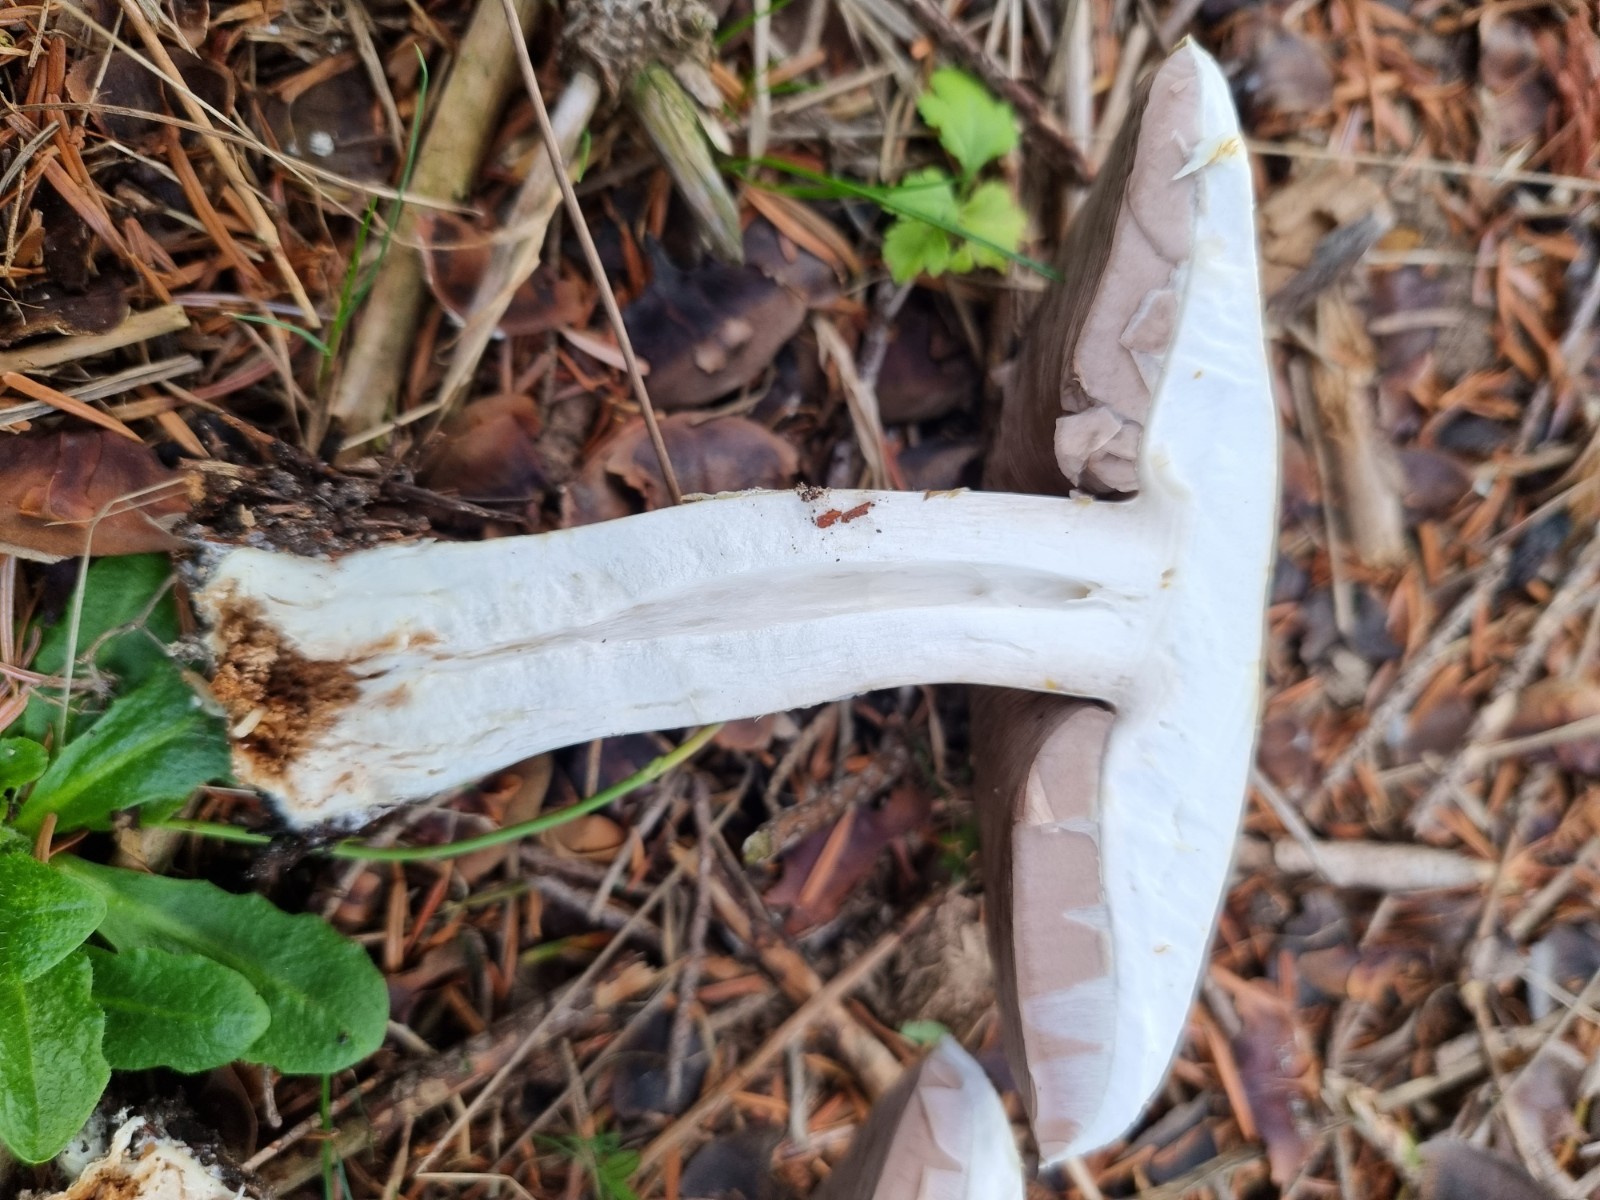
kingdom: Fungi
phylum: Basidiomycota
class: Agaricomycetes
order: Agaricales
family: Agaricaceae
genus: Agaricus
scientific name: Agaricus
